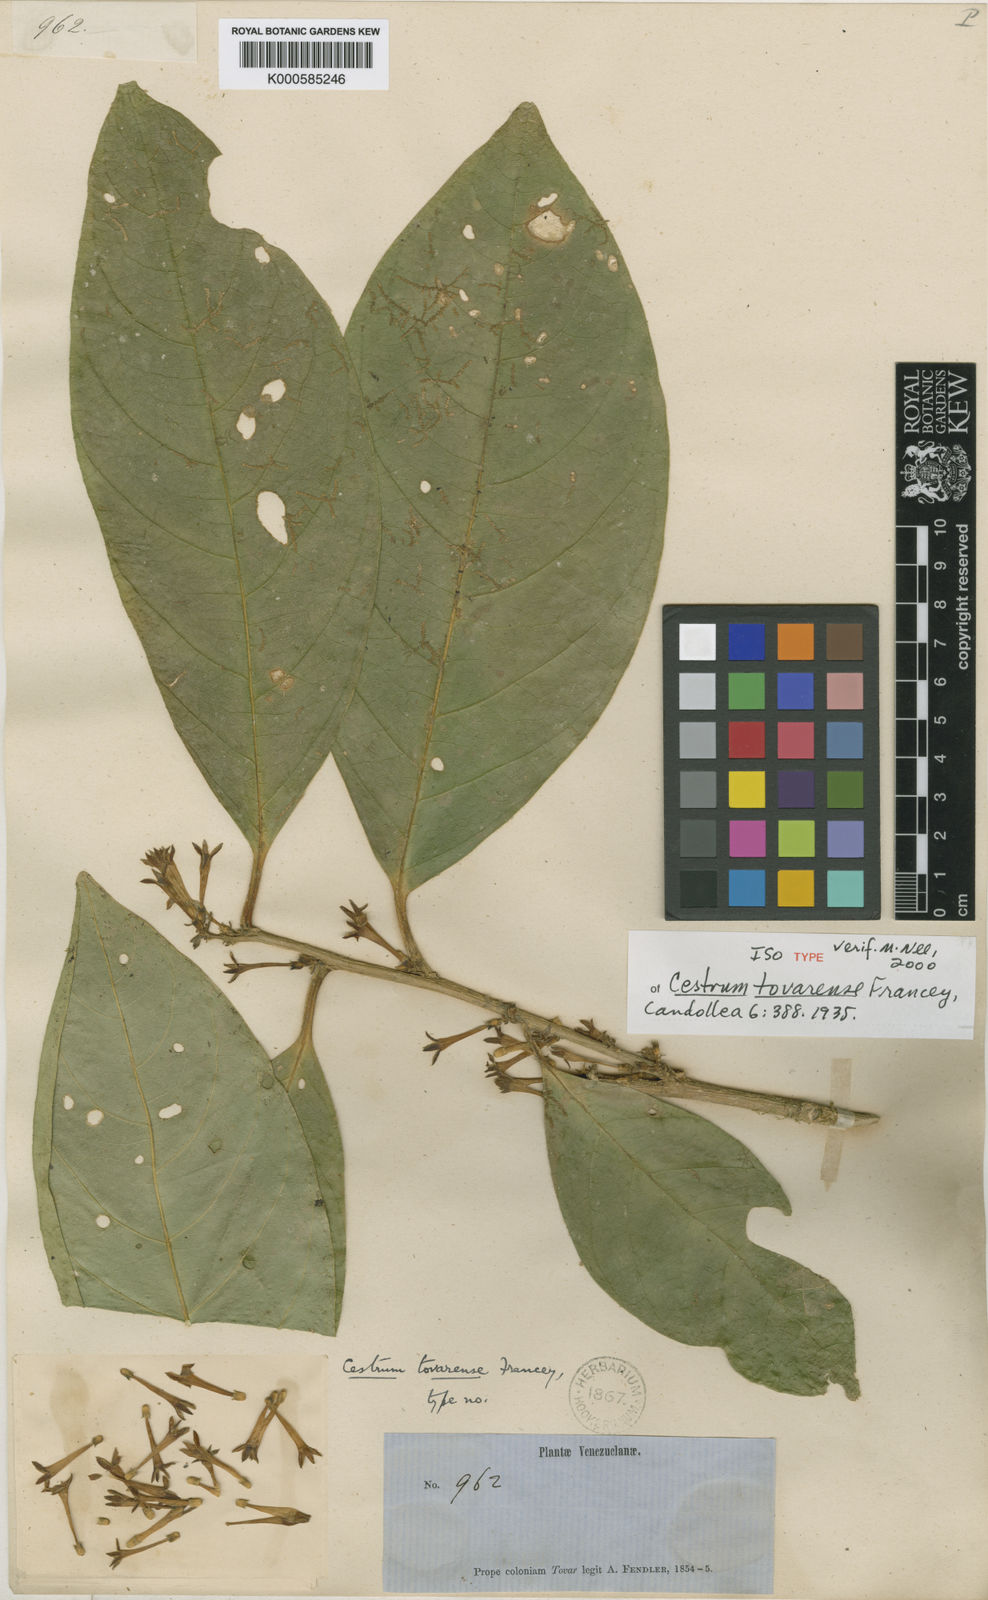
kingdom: Plantae
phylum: Tracheophyta
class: Magnoliopsida
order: Solanales
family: Solanaceae
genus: Cestrum
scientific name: Cestrum potaliifolium
